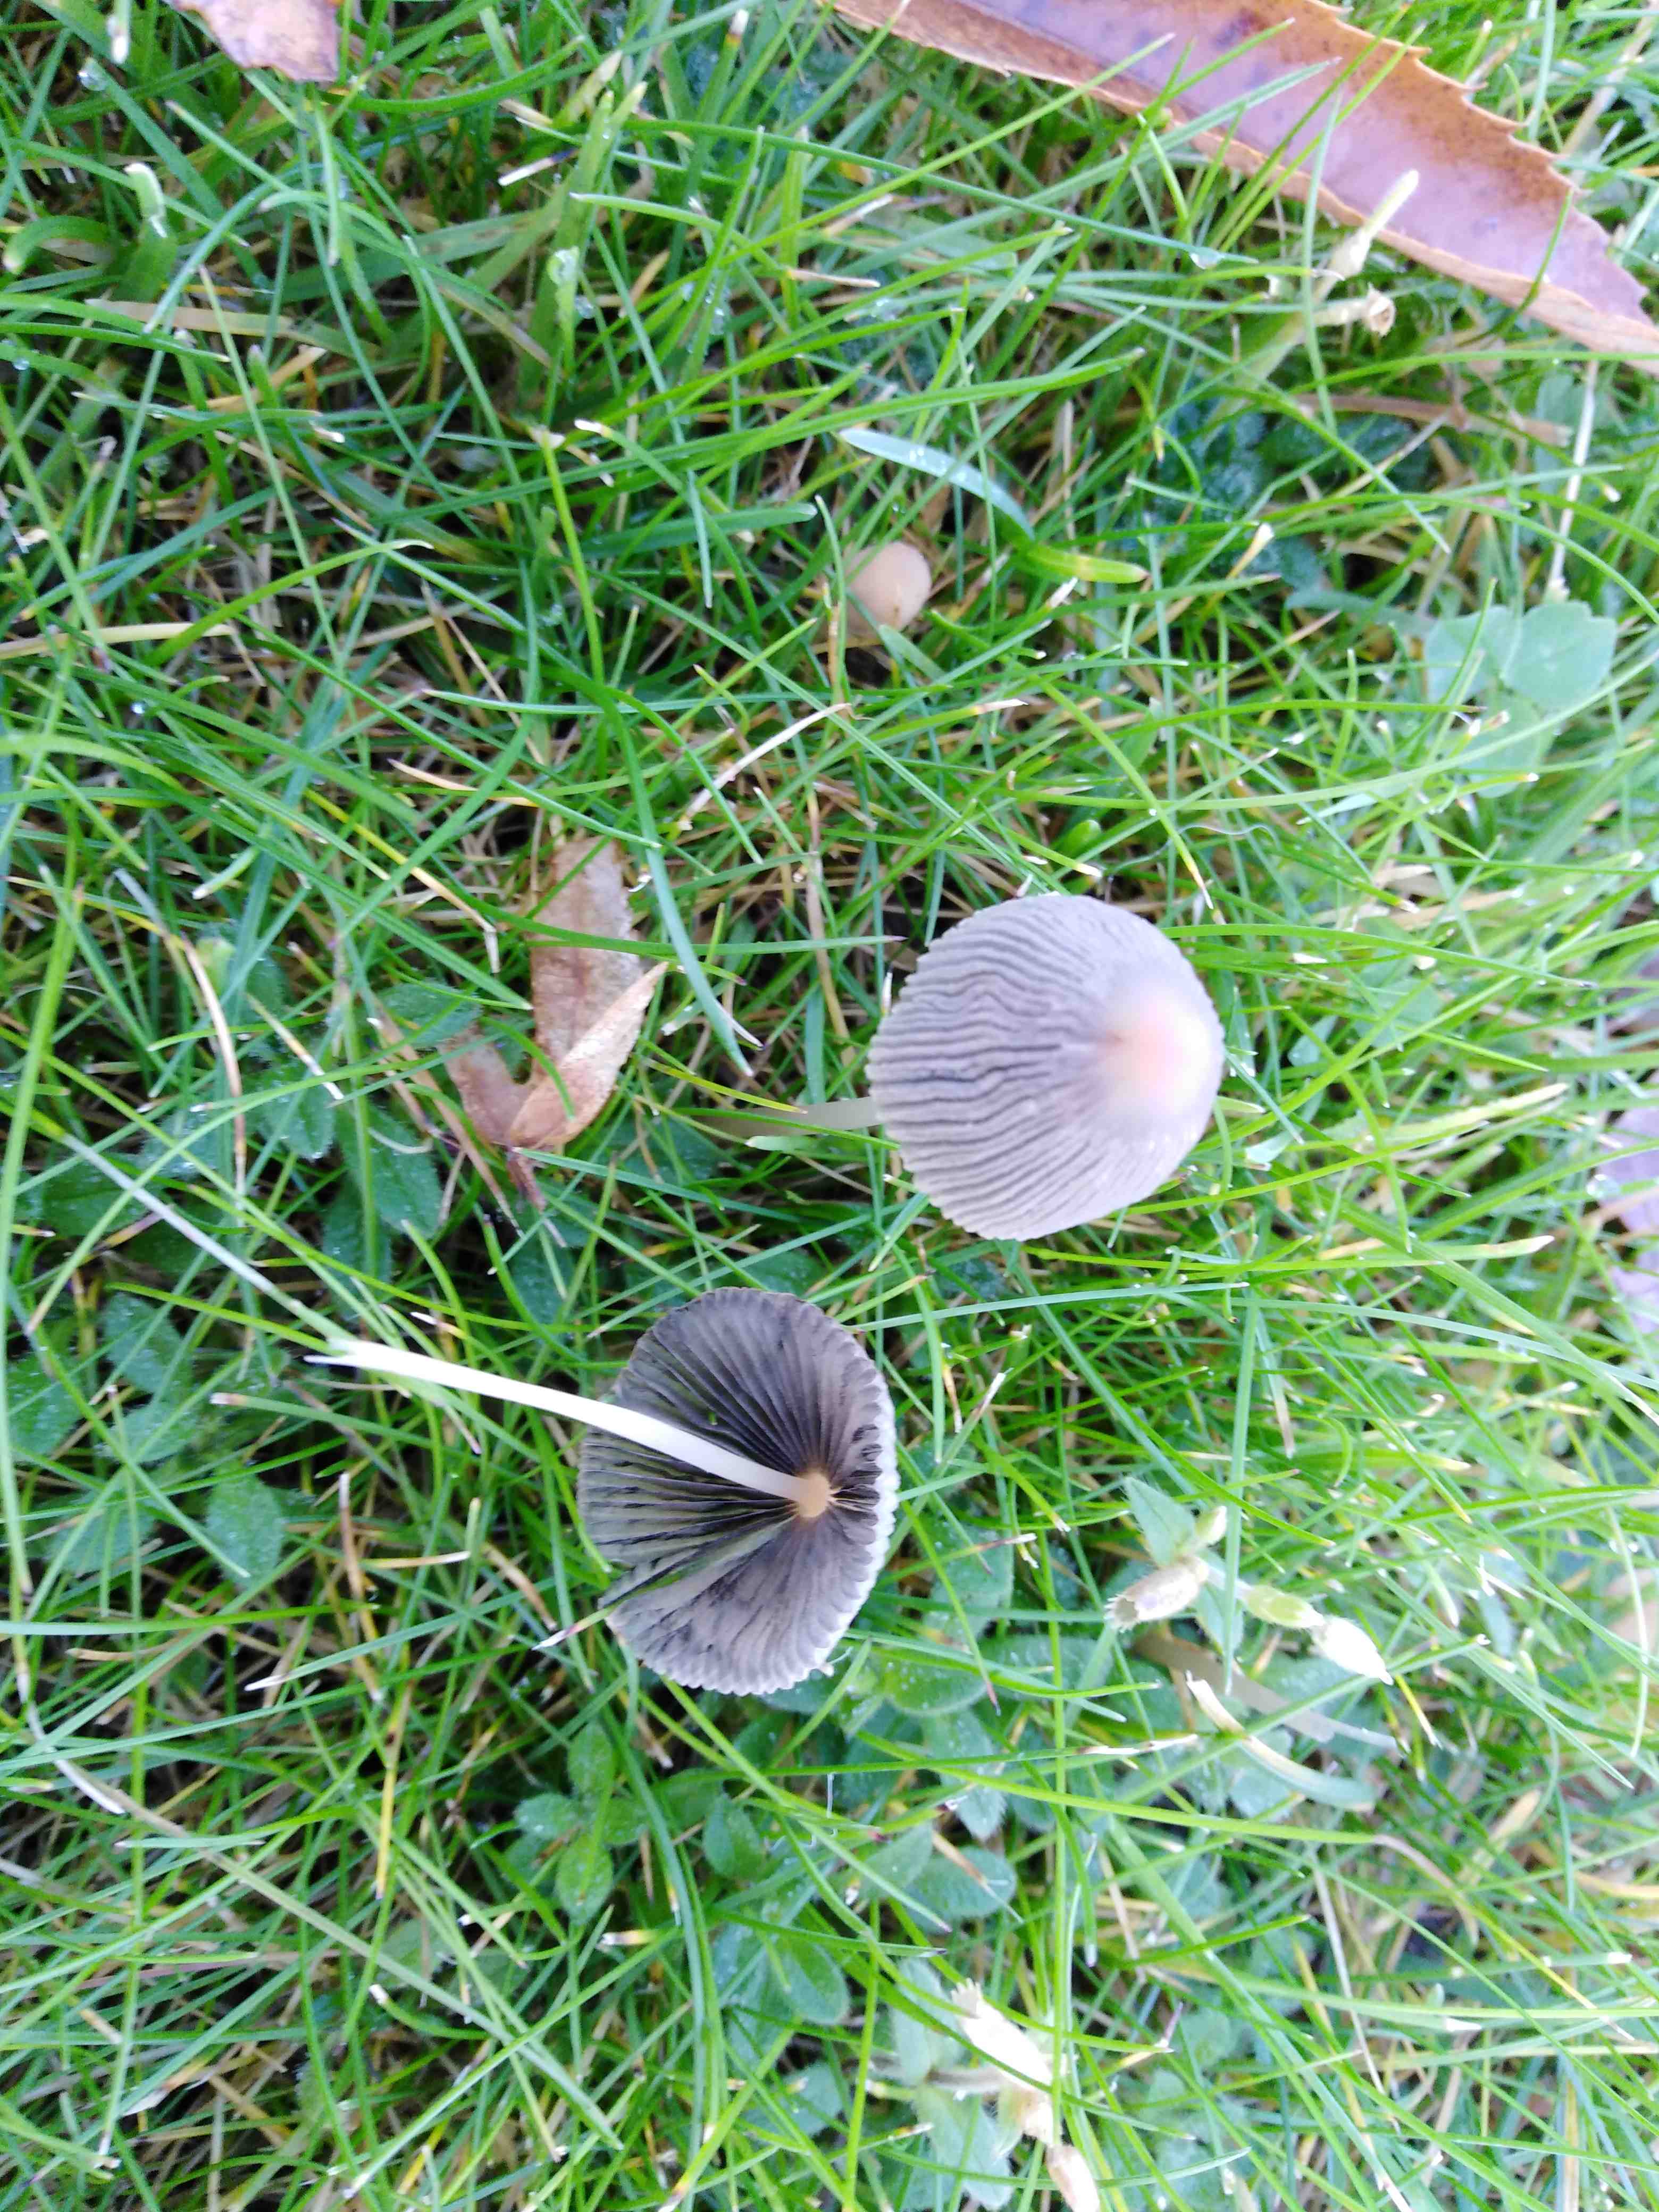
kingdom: Fungi
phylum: Basidiomycota
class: Agaricomycetes
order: Agaricales
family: Psathyrellaceae
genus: Parasola
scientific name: Parasola
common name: hjulhat
